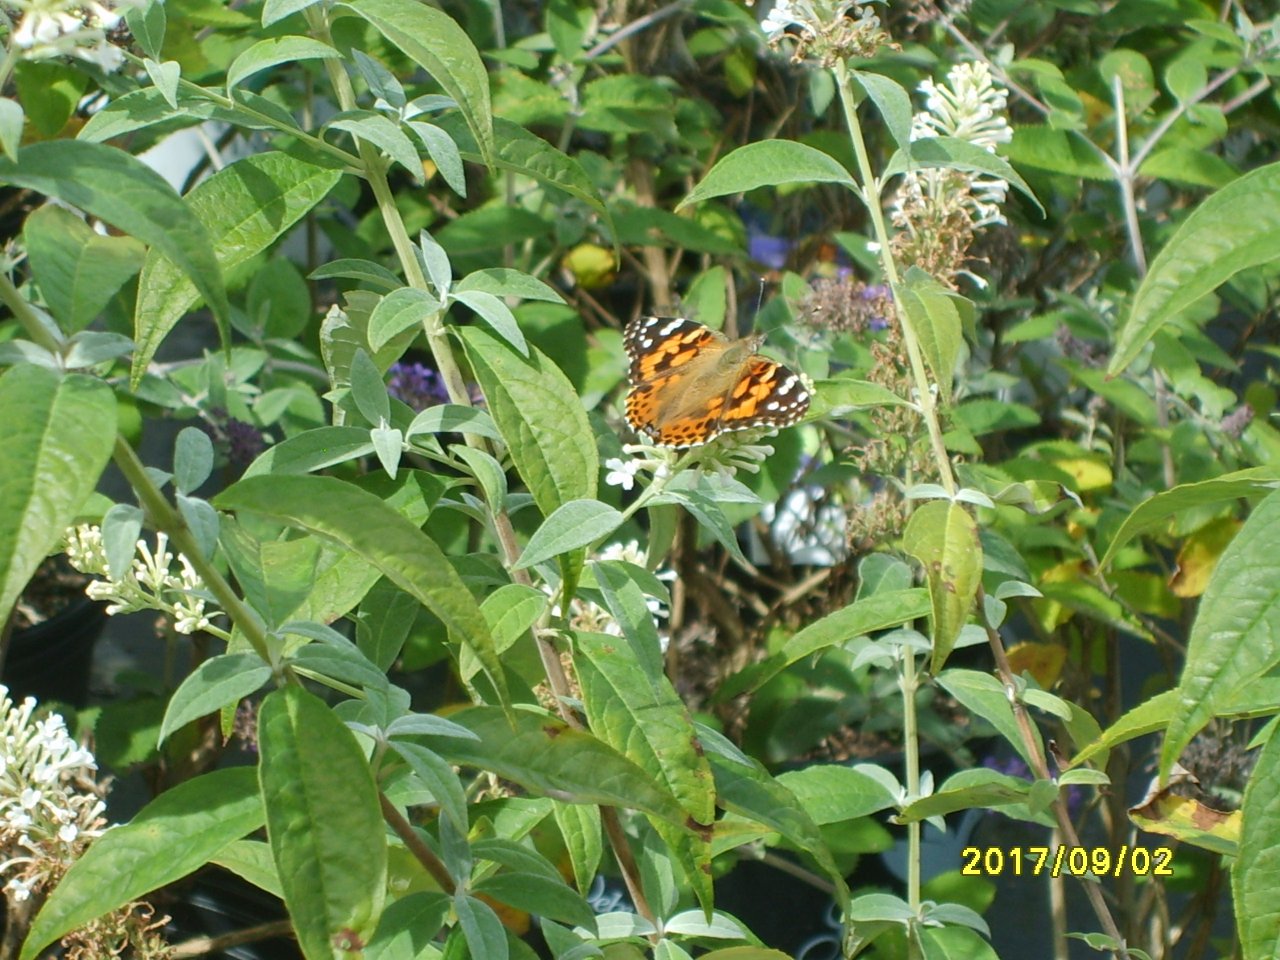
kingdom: Animalia
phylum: Arthropoda
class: Insecta
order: Lepidoptera
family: Nymphalidae
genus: Vanessa
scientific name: Vanessa cardui
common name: Painted Lady
